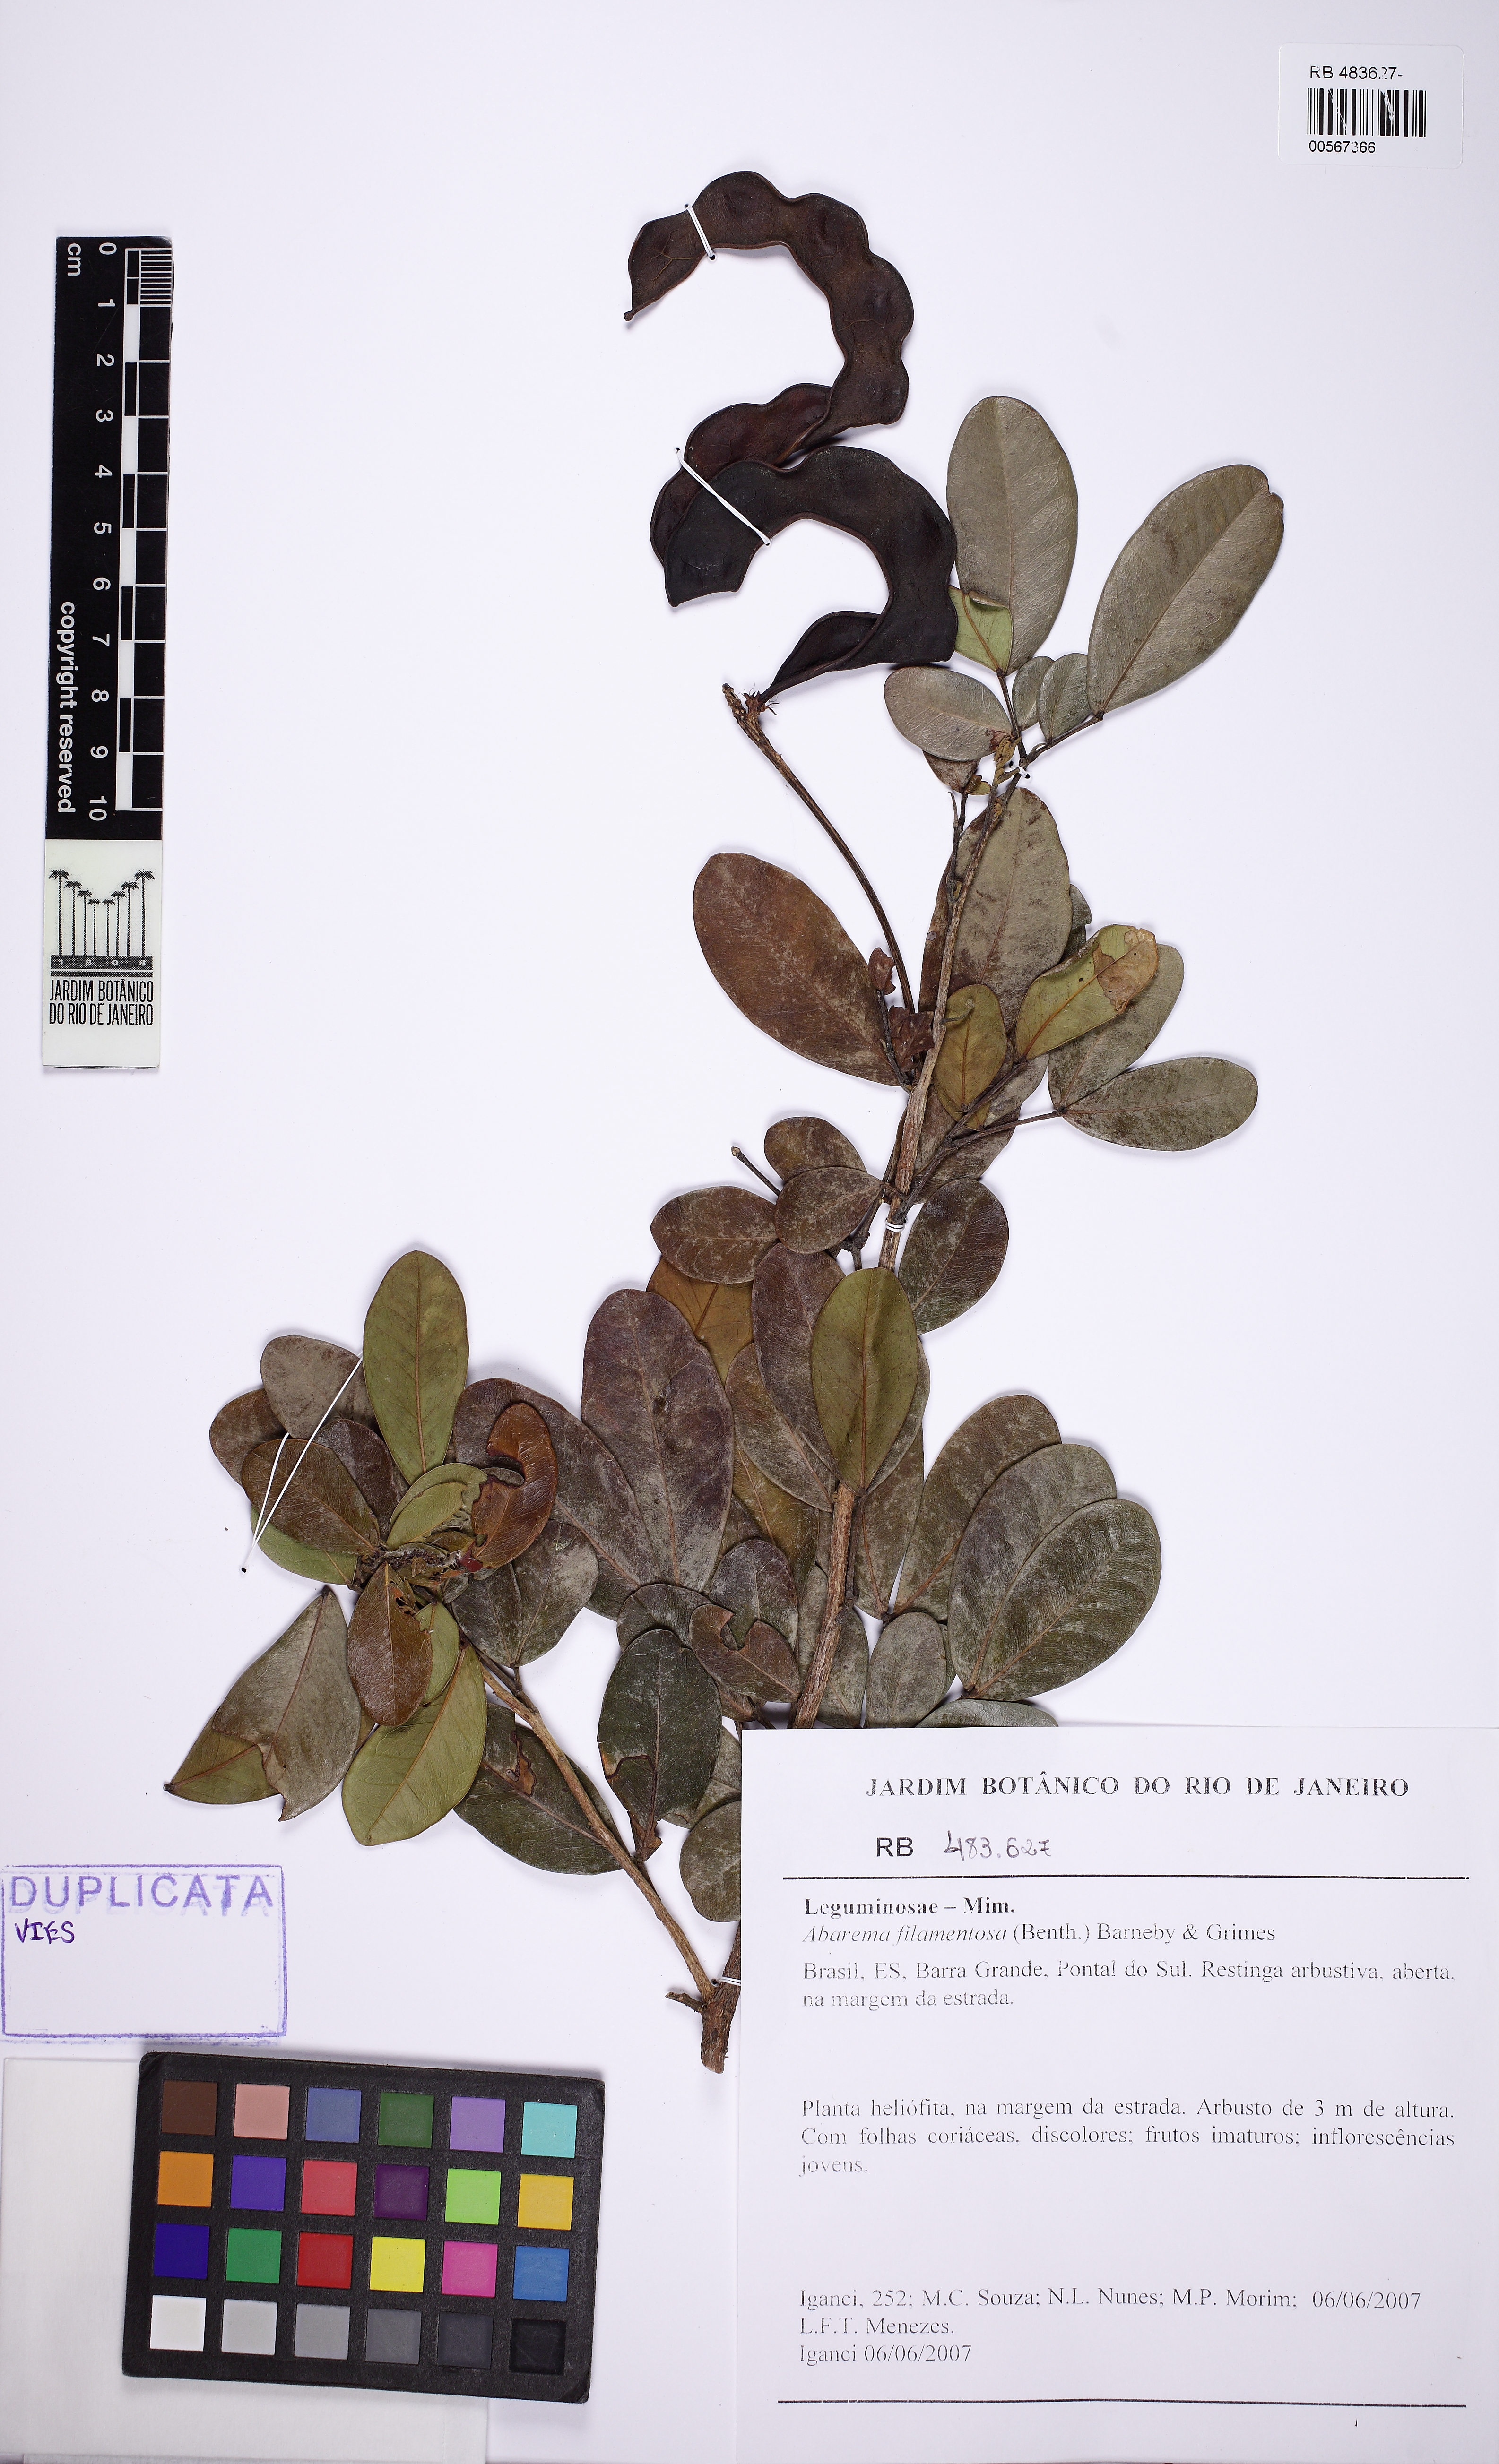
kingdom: Plantae
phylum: Tracheophyta
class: Magnoliopsida
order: Fabales
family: Fabaceae
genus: Jupunba
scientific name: Jupunba filamentosa
